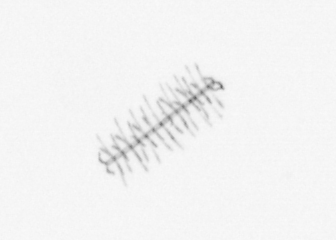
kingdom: Chromista
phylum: Ochrophyta
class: Bacillariophyceae
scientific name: Bacillariophyceae
